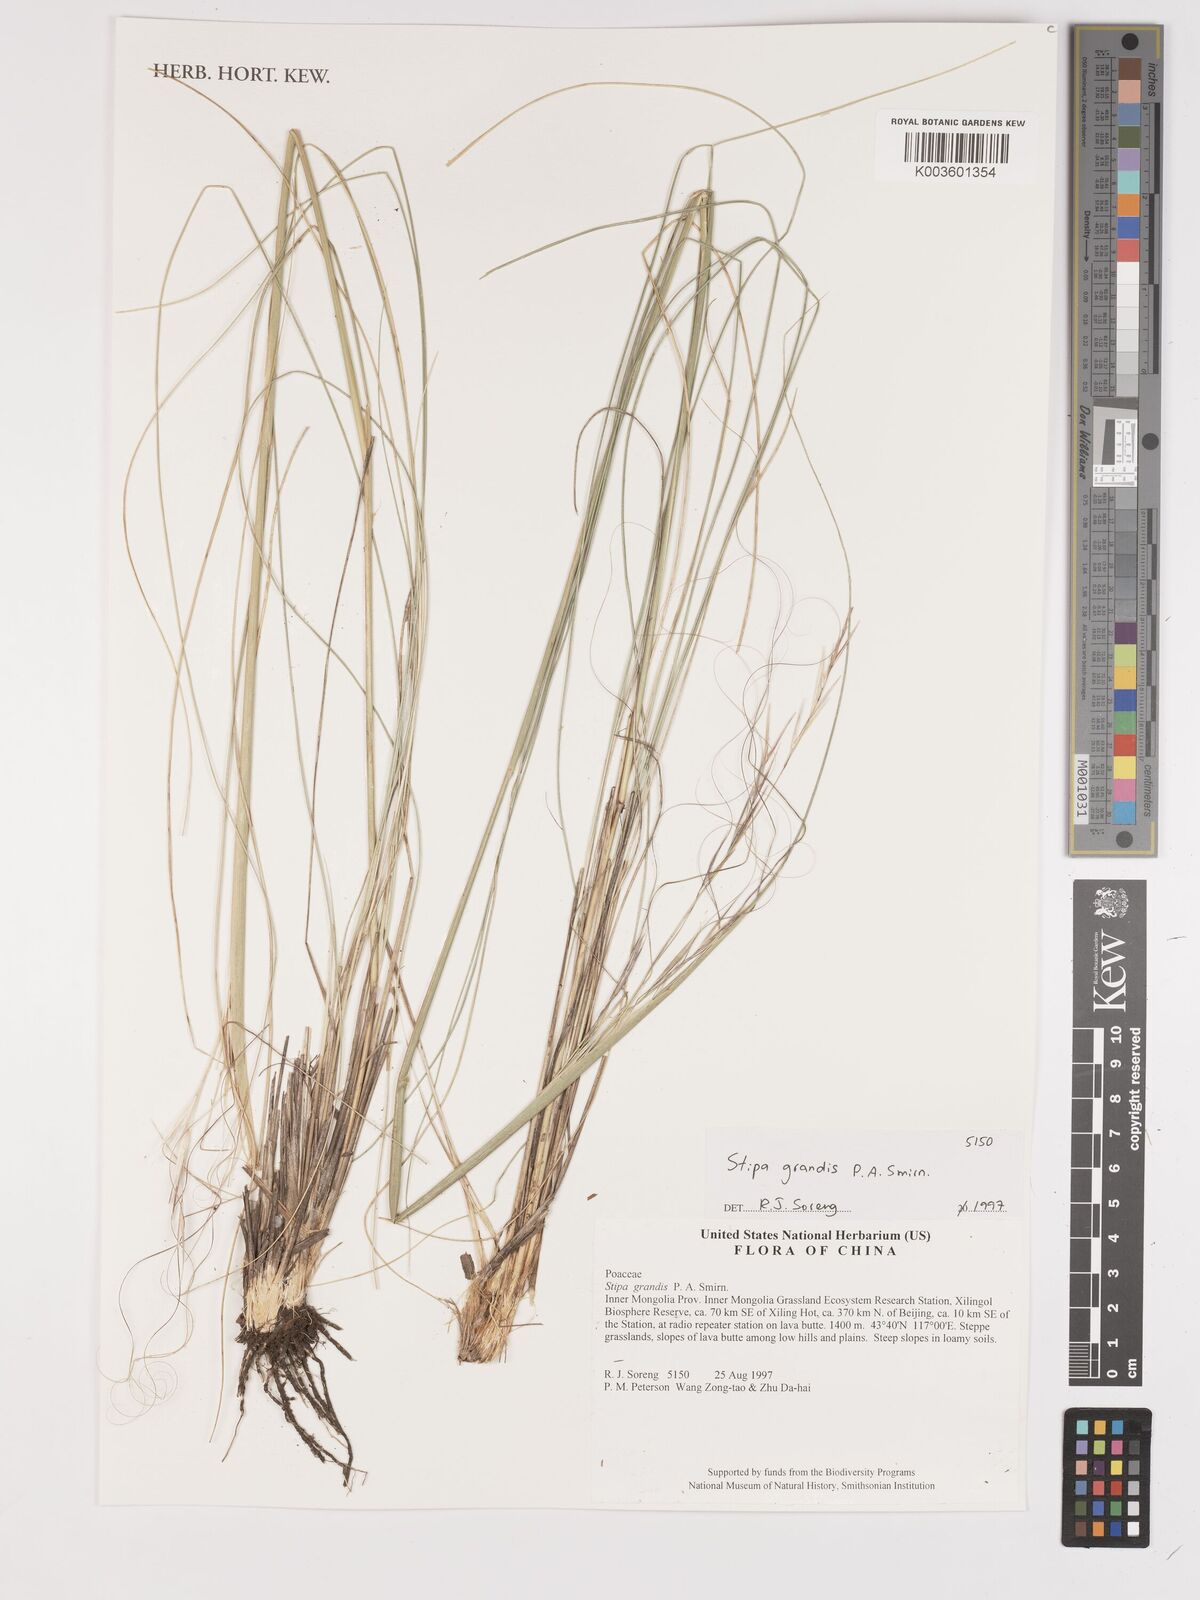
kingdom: Plantae
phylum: Tracheophyta
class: Liliopsida
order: Poales
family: Poaceae
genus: Stipa
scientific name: Stipa grandis
